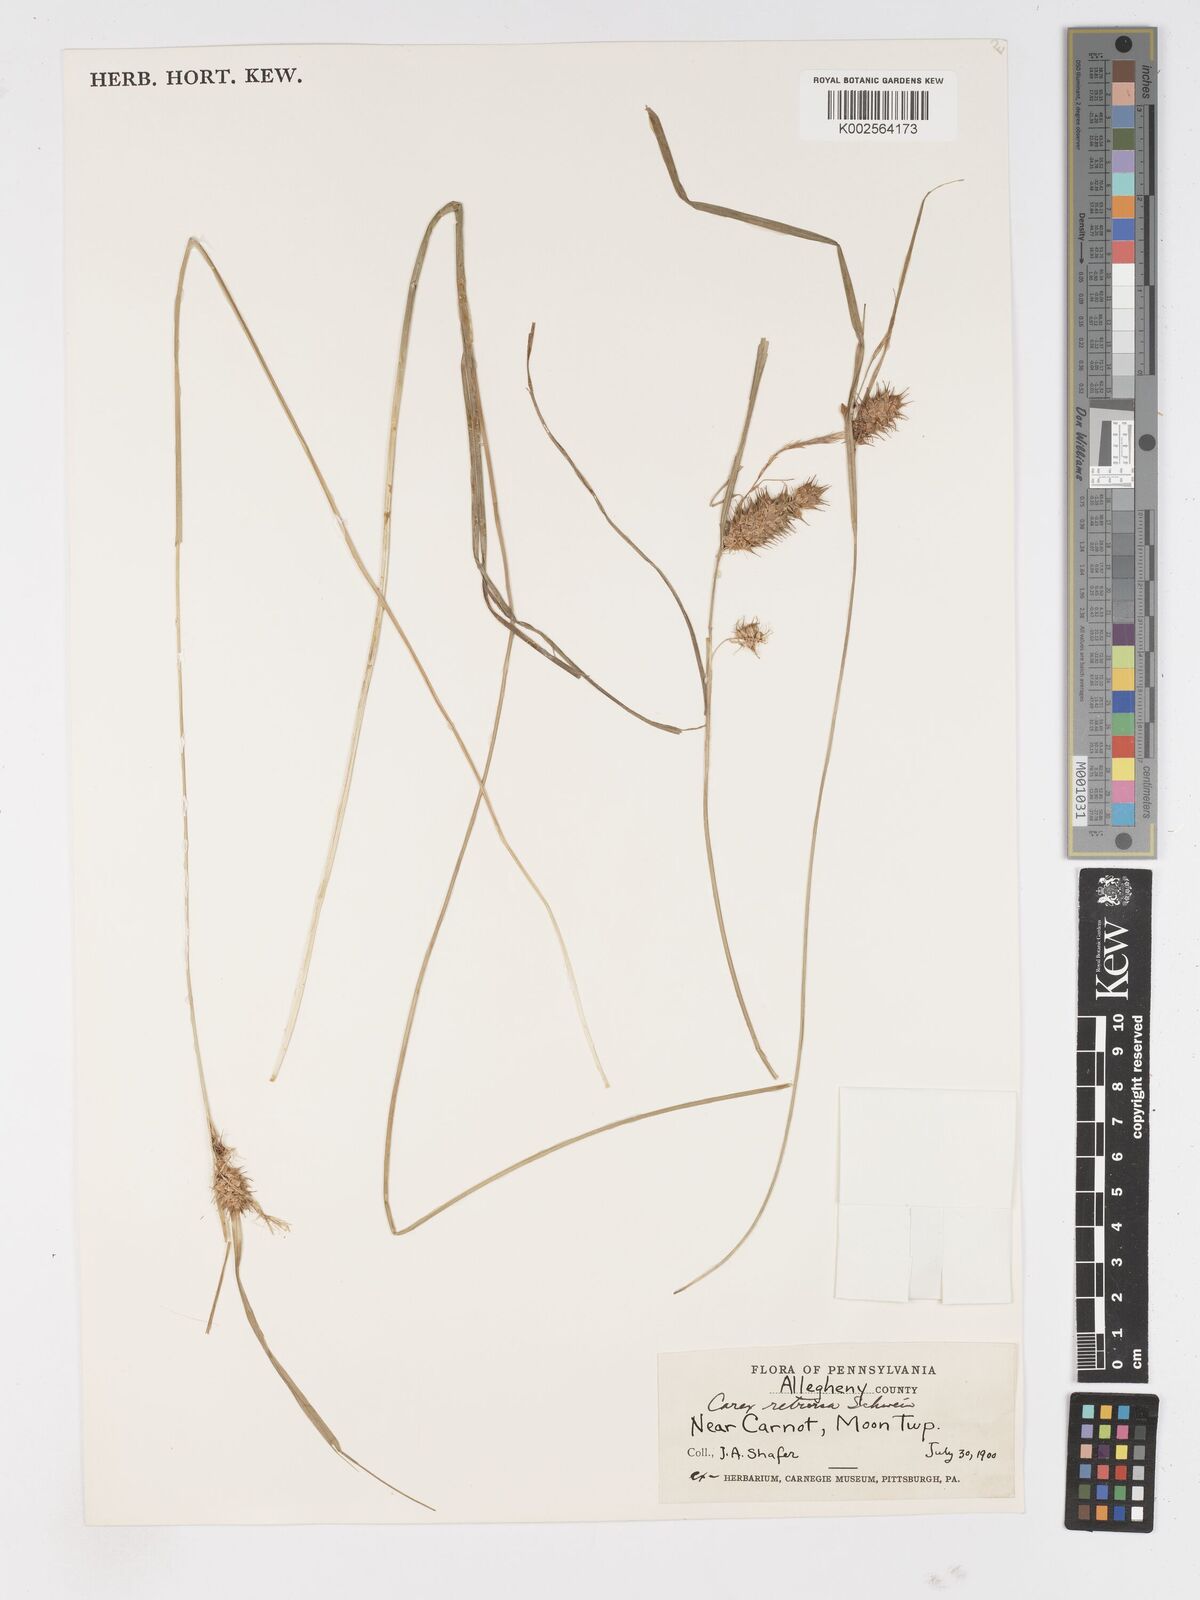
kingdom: Plantae
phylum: Tracheophyta
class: Liliopsida
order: Poales
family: Cyperaceae
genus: Carex
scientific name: Carex retrorsa
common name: Knot-sheath sedge
